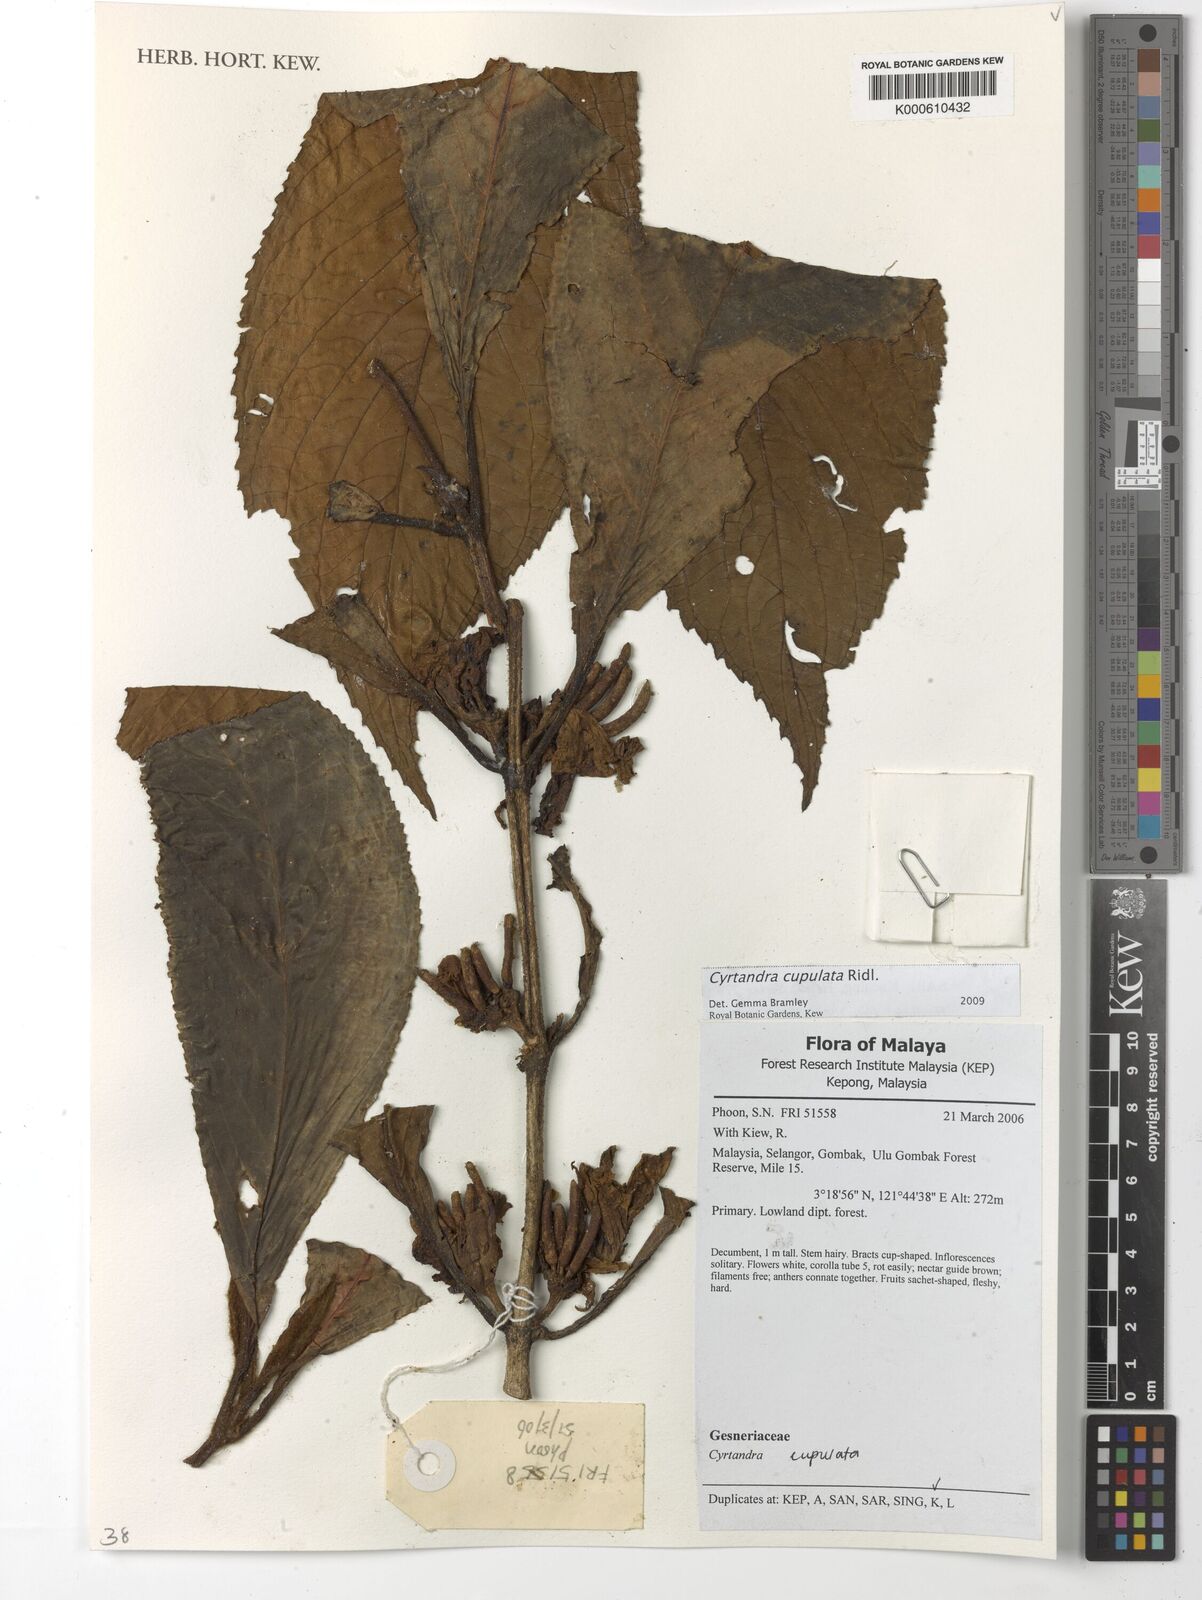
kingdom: Plantae
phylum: Tracheophyta
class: Magnoliopsida
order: Lamiales
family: Gesneriaceae
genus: Cyrtandra
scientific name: Cyrtandra cupulata
